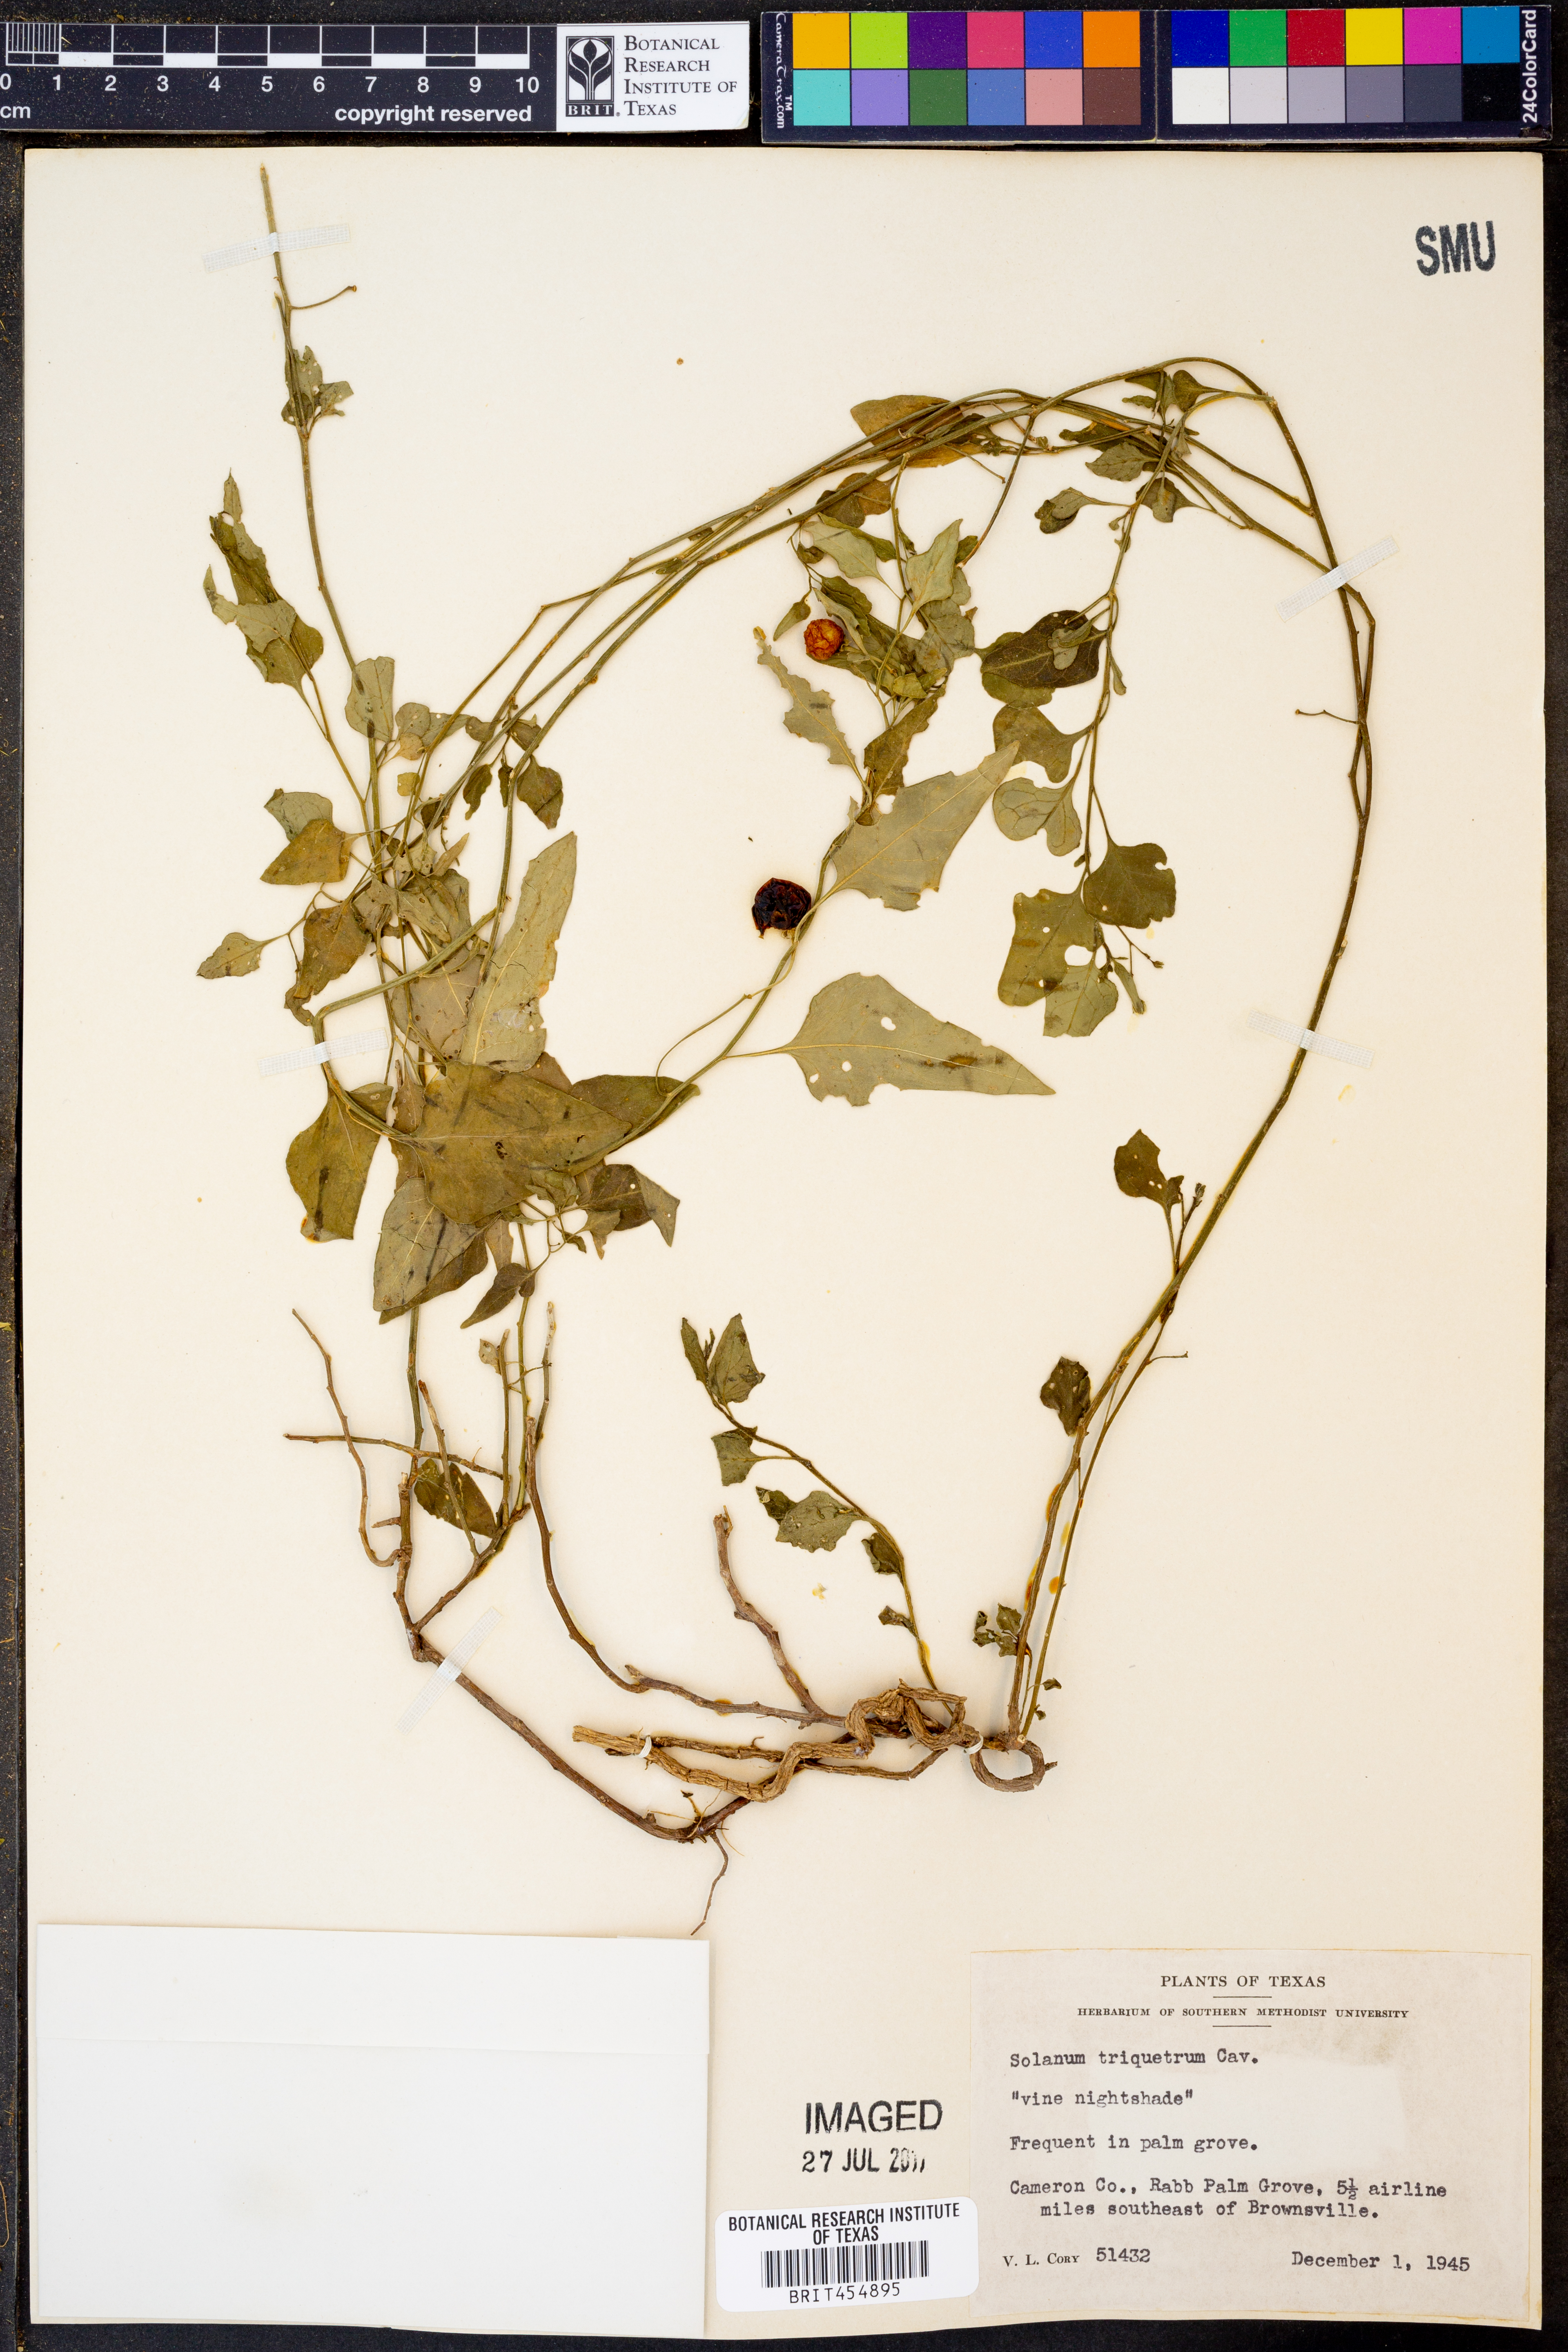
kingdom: Plantae
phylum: Tracheophyta
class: Magnoliopsida
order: Solanales
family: Solanaceae
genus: Solanum
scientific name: Solanum triquetrum
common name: Texas nightshade
